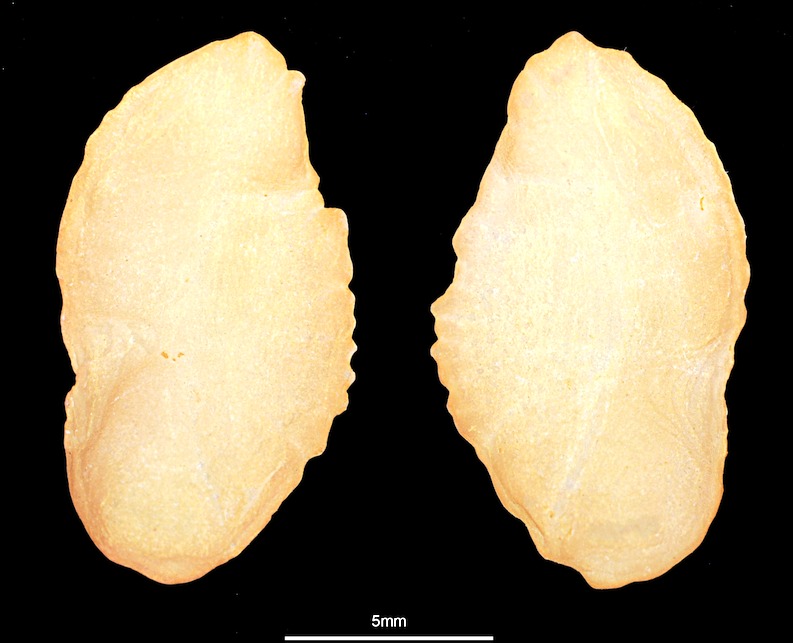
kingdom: Animalia
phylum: Chordata
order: Gadiformes
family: Lotidae
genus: Brosme
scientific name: Brosme brosme
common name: Cusk
